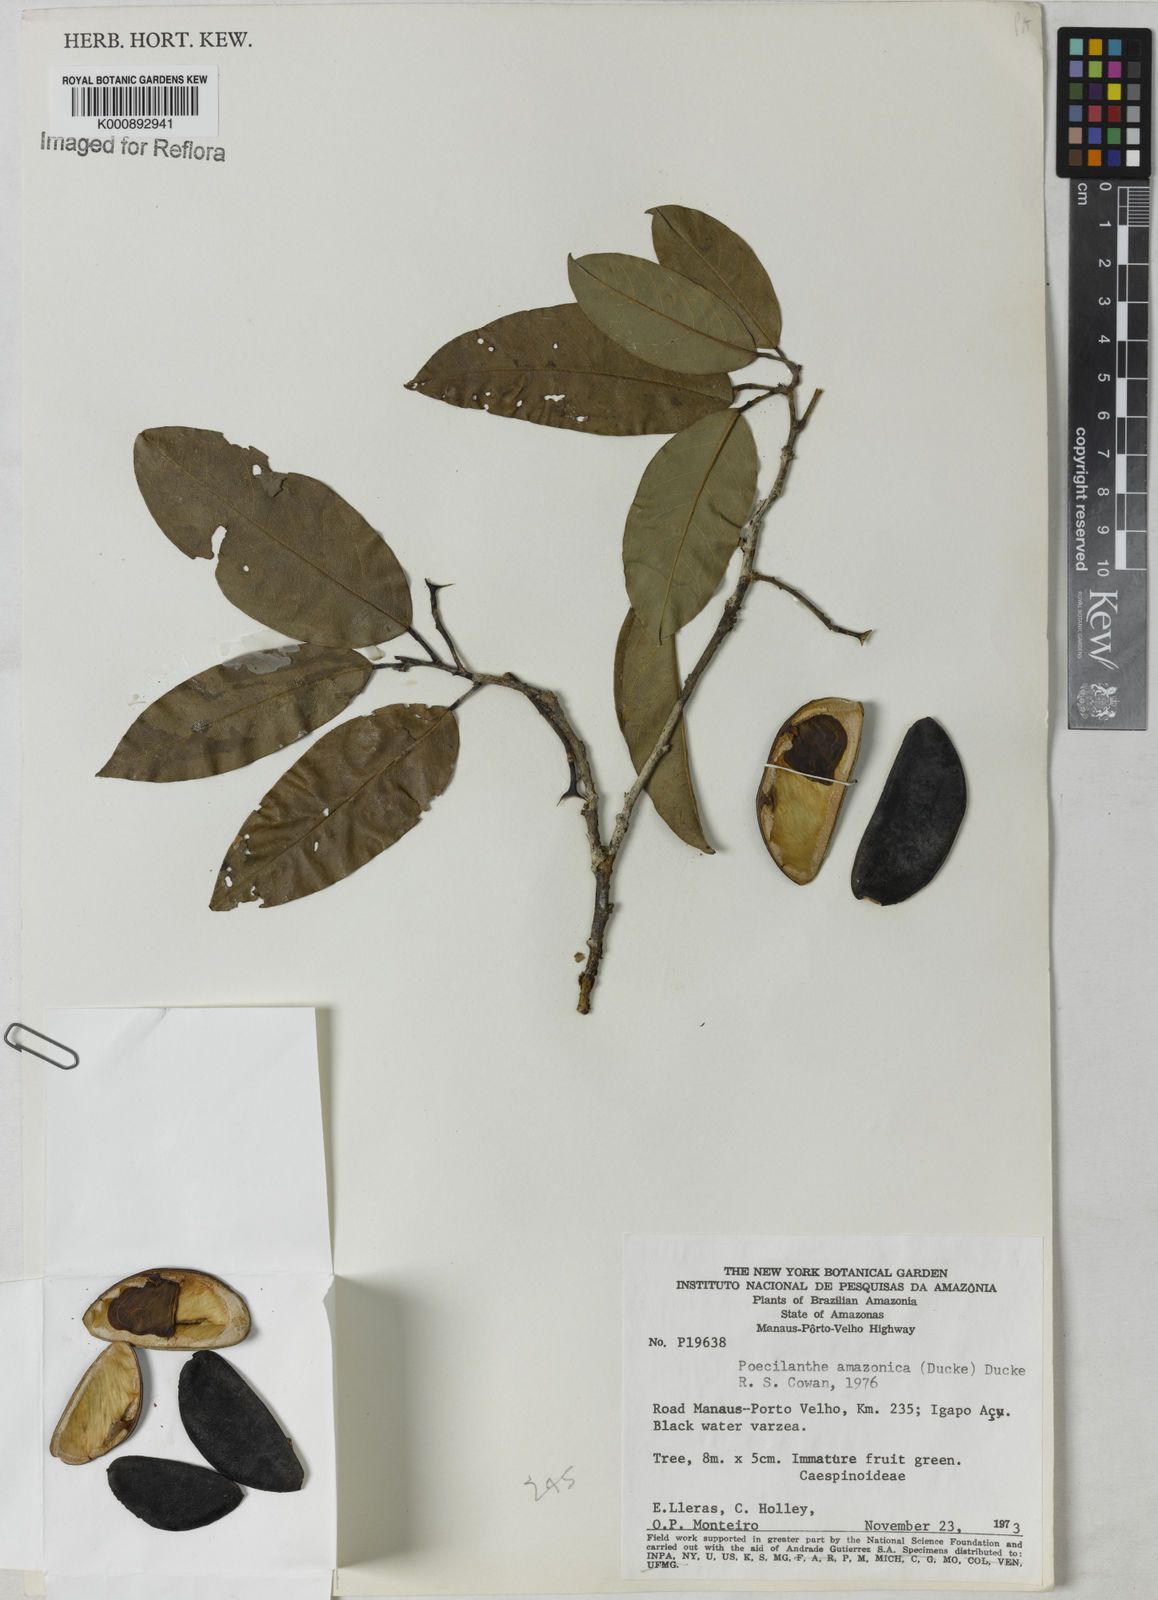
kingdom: Plantae
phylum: Tracheophyta
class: Magnoliopsida
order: Fabales
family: Fabaceae
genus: Limadendron
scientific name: Limadendron amazonicum
